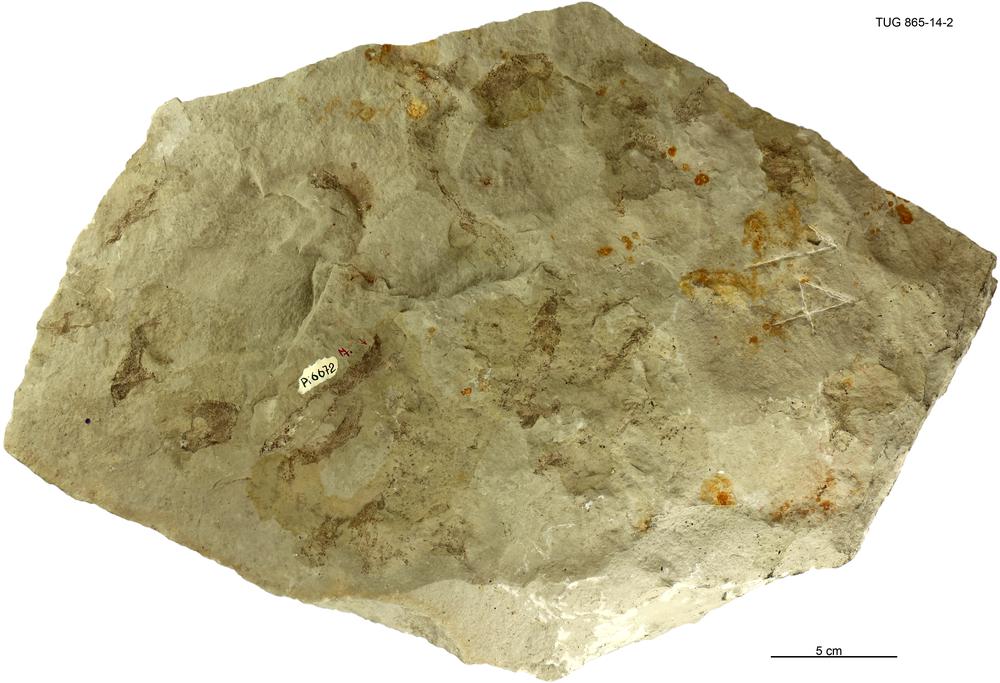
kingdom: Animalia
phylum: Chordata
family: Phlebolepididae
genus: Phlebolepis
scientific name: Phlebolepis elegans
